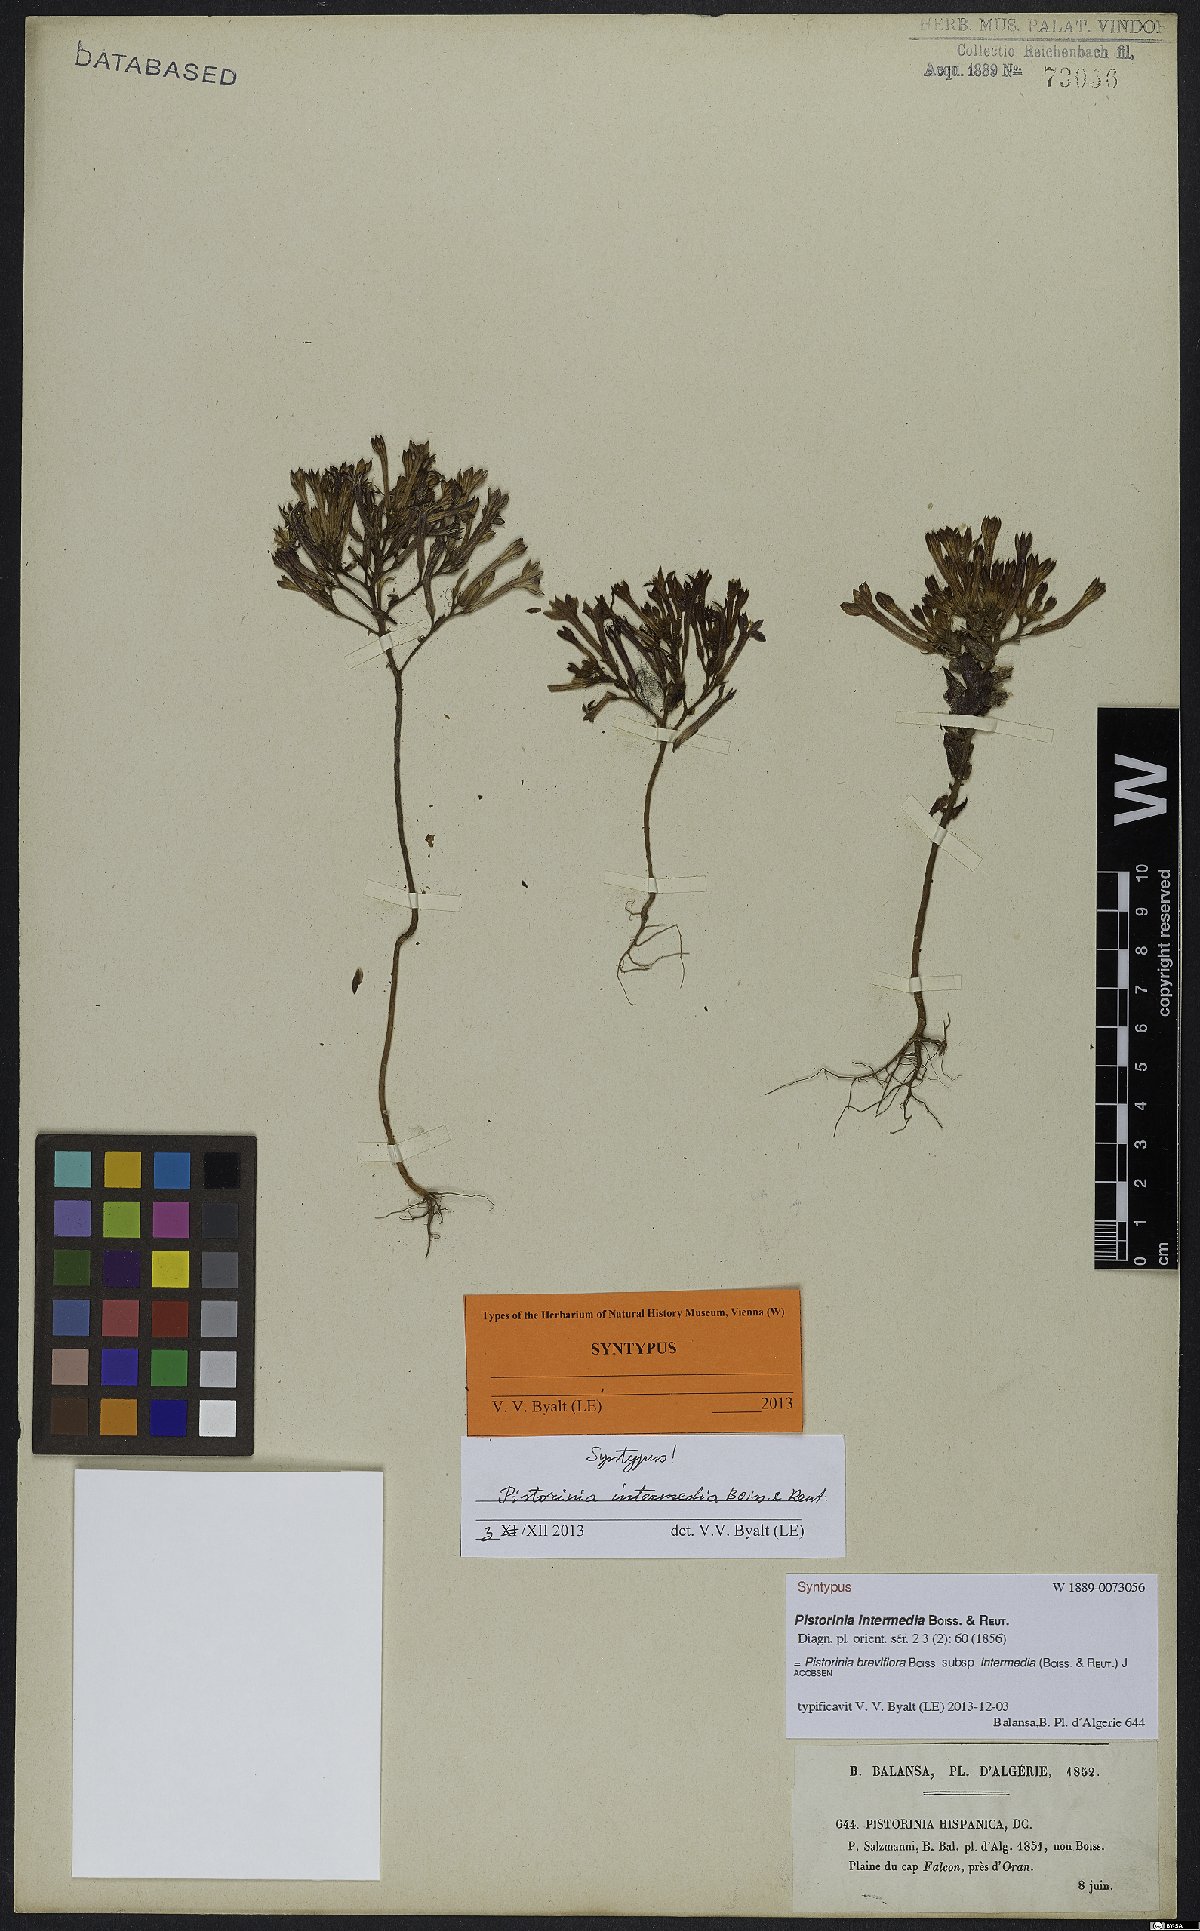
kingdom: Plantae
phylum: Tracheophyta
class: Magnoliopsida
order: Saxifragales
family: Crassulaceae
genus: Pistorinia
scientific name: Pistorinia breviflora
